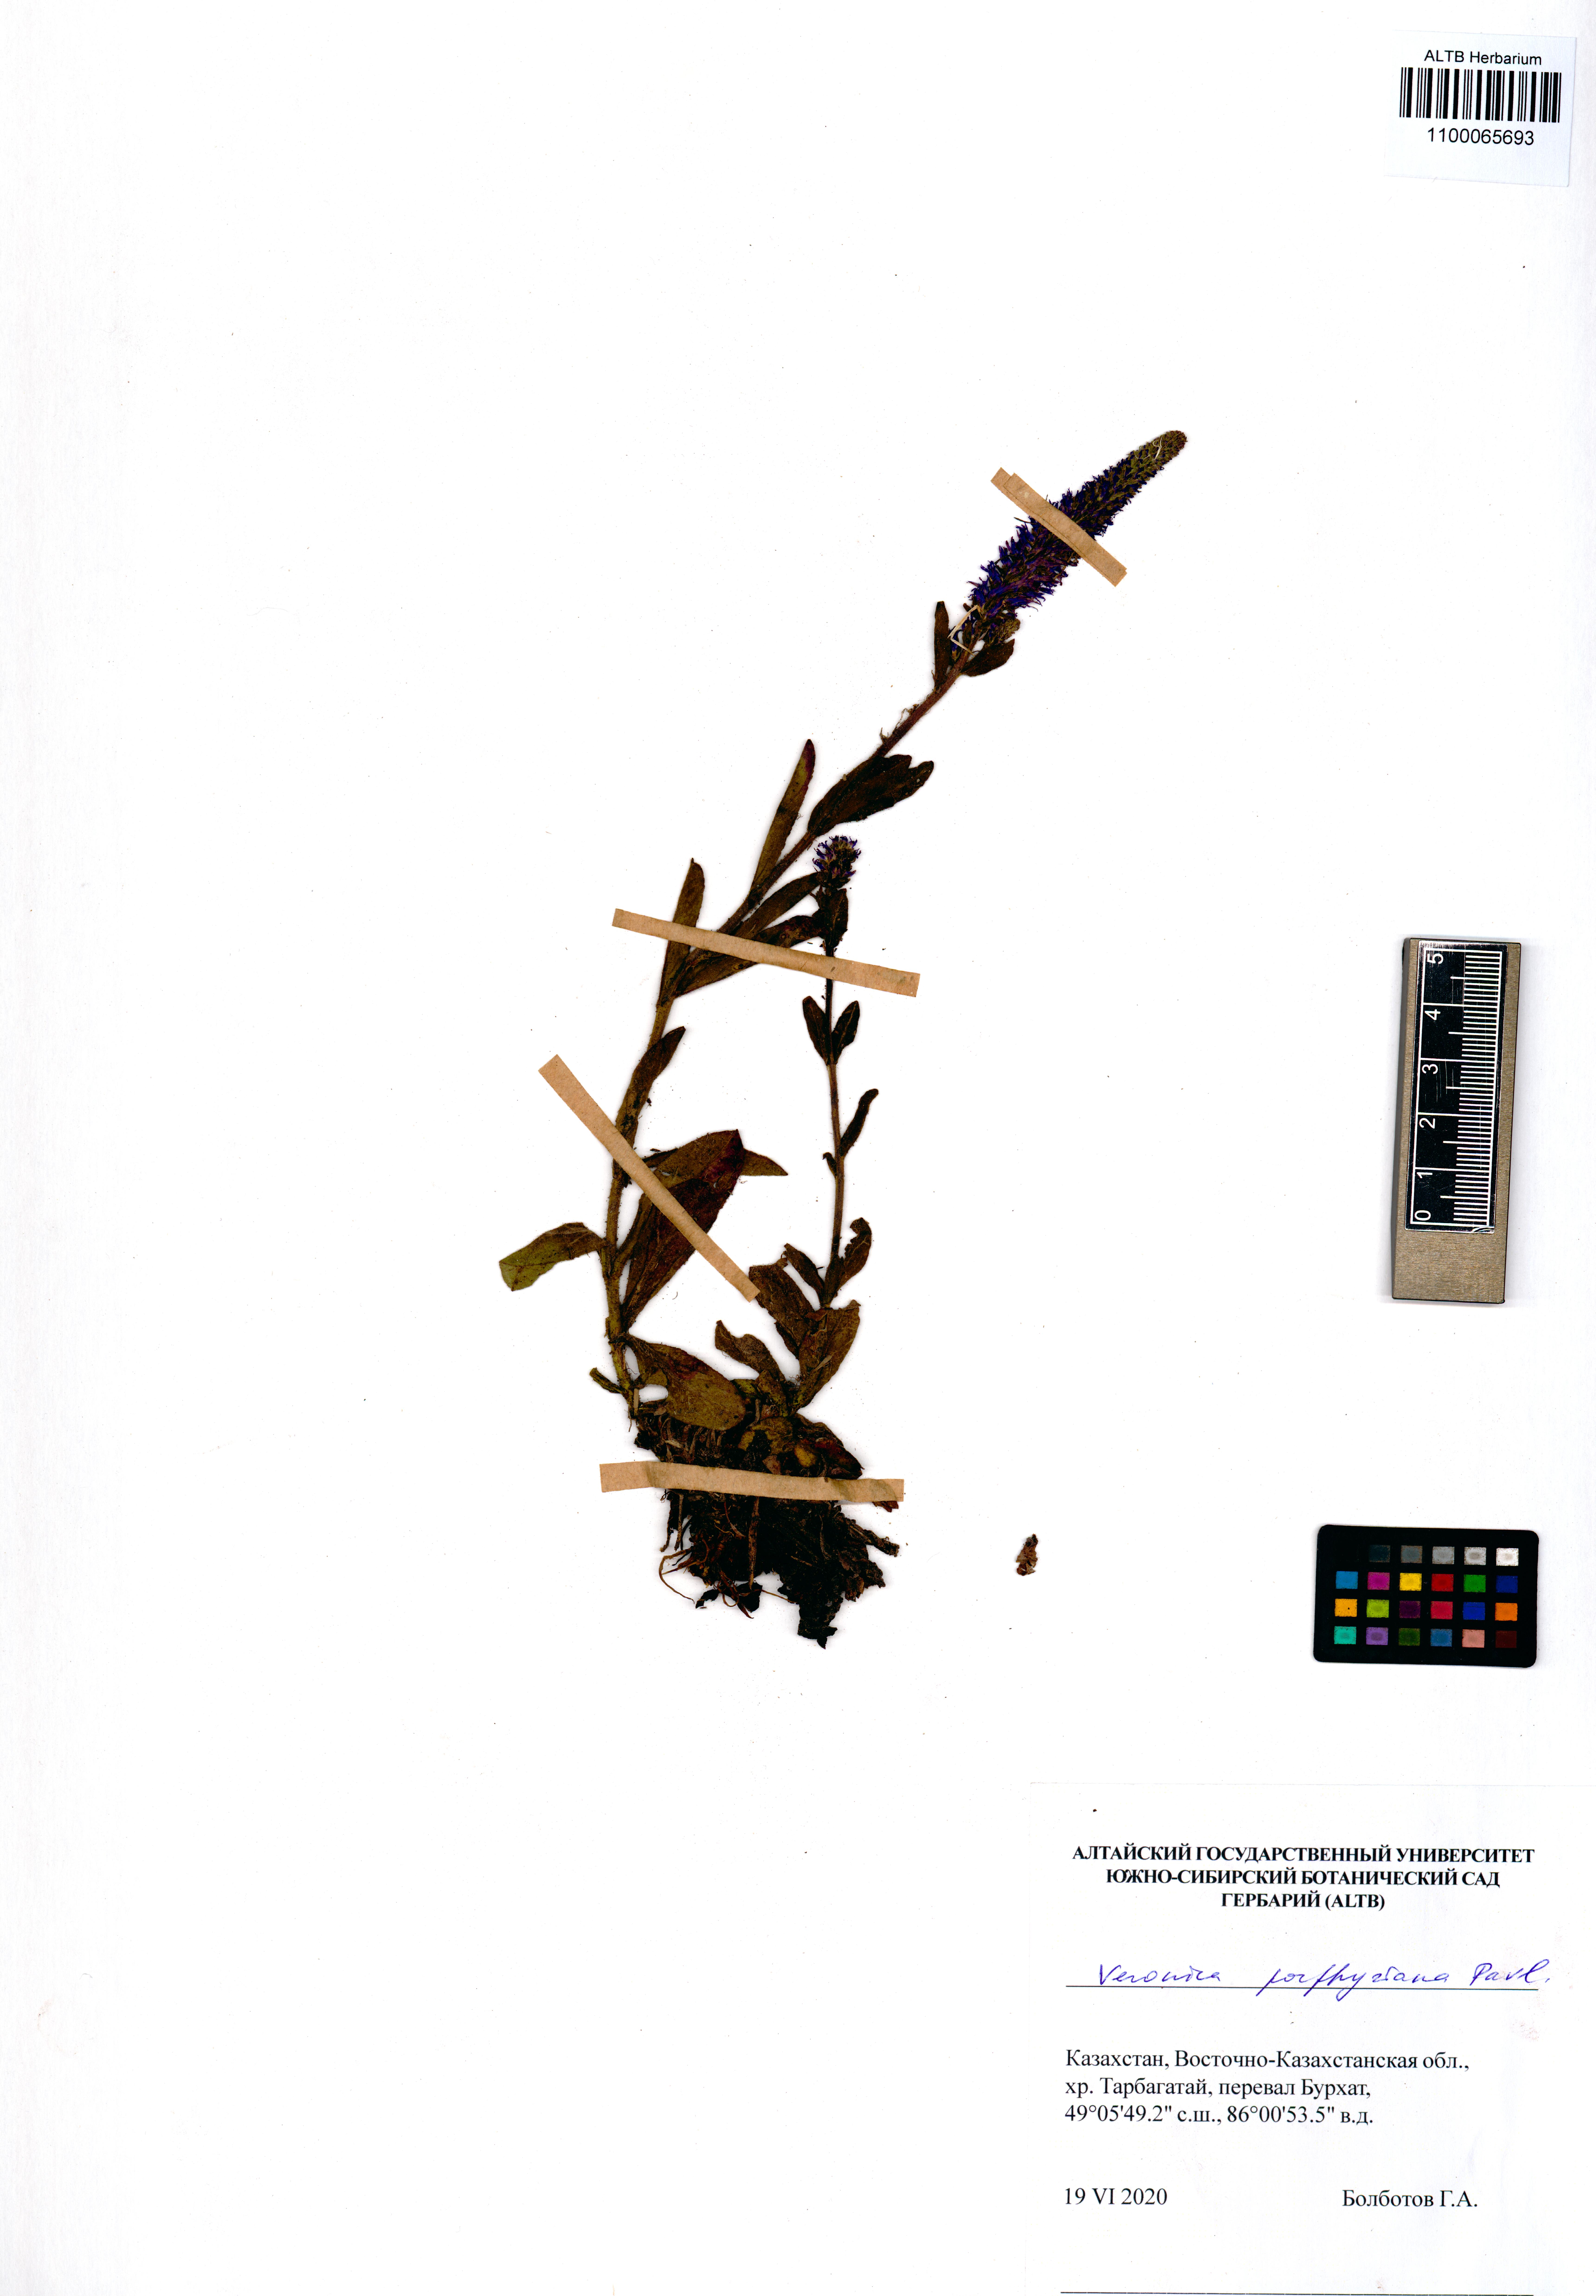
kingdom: Plantae
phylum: Tracheophyta
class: Magnoliopsida
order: Lamiales
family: Plantaginaceae
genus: Veronica
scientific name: Veronica porphyriana
